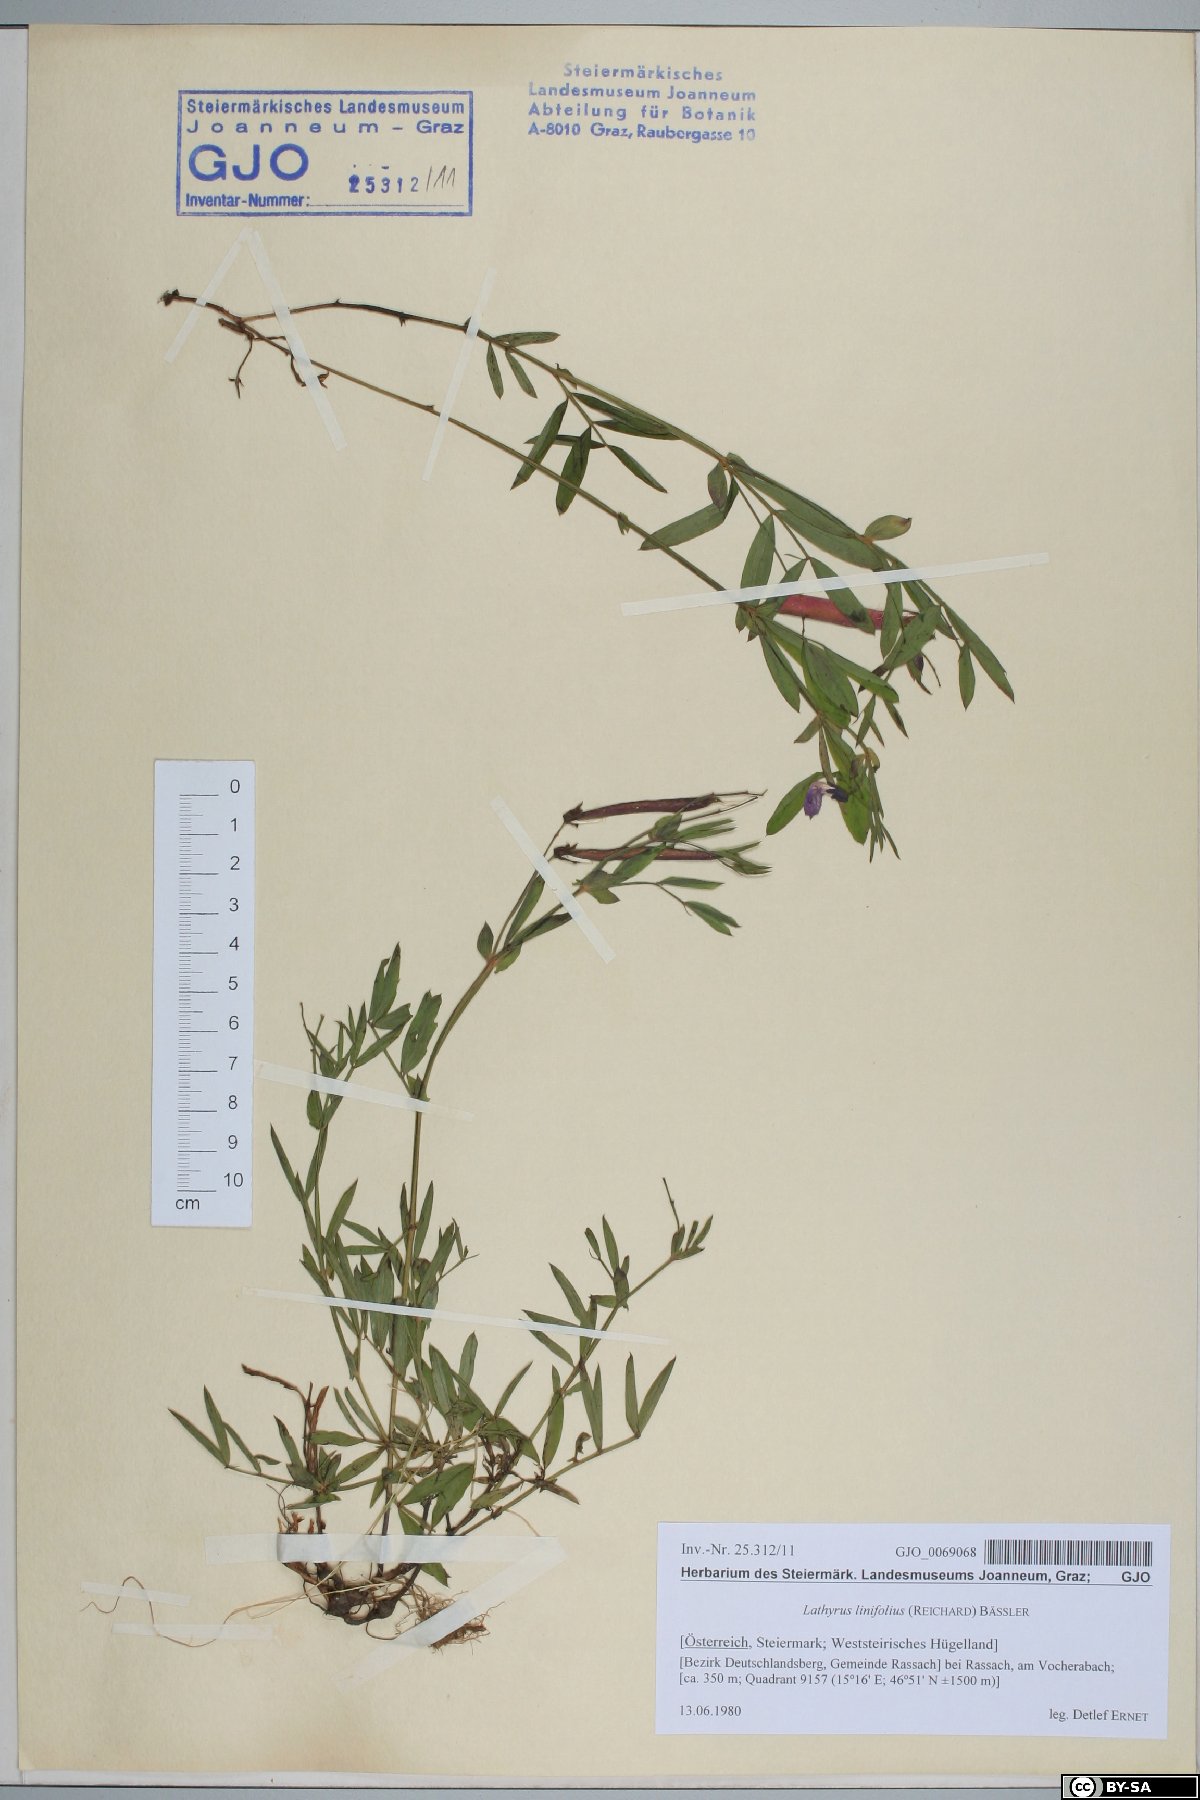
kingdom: Plantae
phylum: Tracheophyta
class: Magnoliopsida
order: Fabales
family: Fabaceae
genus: Lathyrus
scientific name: Lathyrus linifolius
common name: Bitter-vetch
